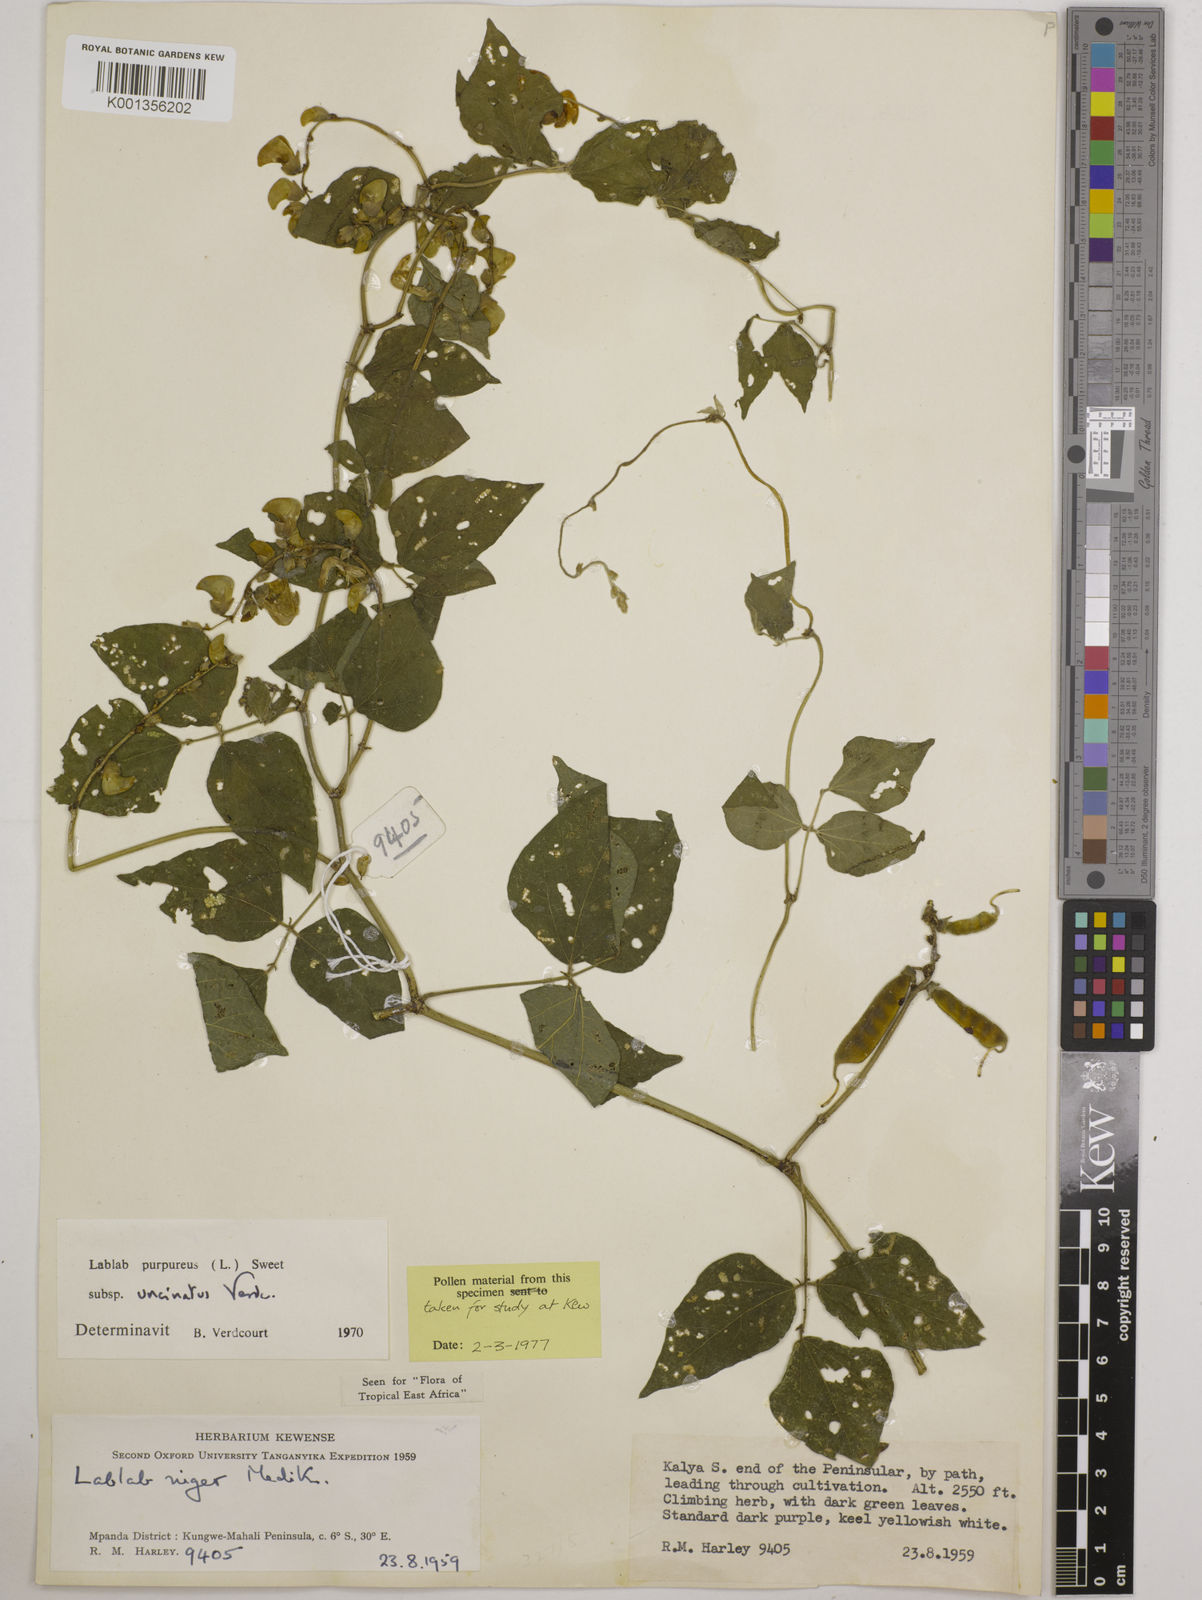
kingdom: Plantae
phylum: Tracheophyta
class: Magnoliopsida
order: Fabales
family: Fabaceae
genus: Lablab
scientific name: Lablab purpureus
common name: Lablab-bean
